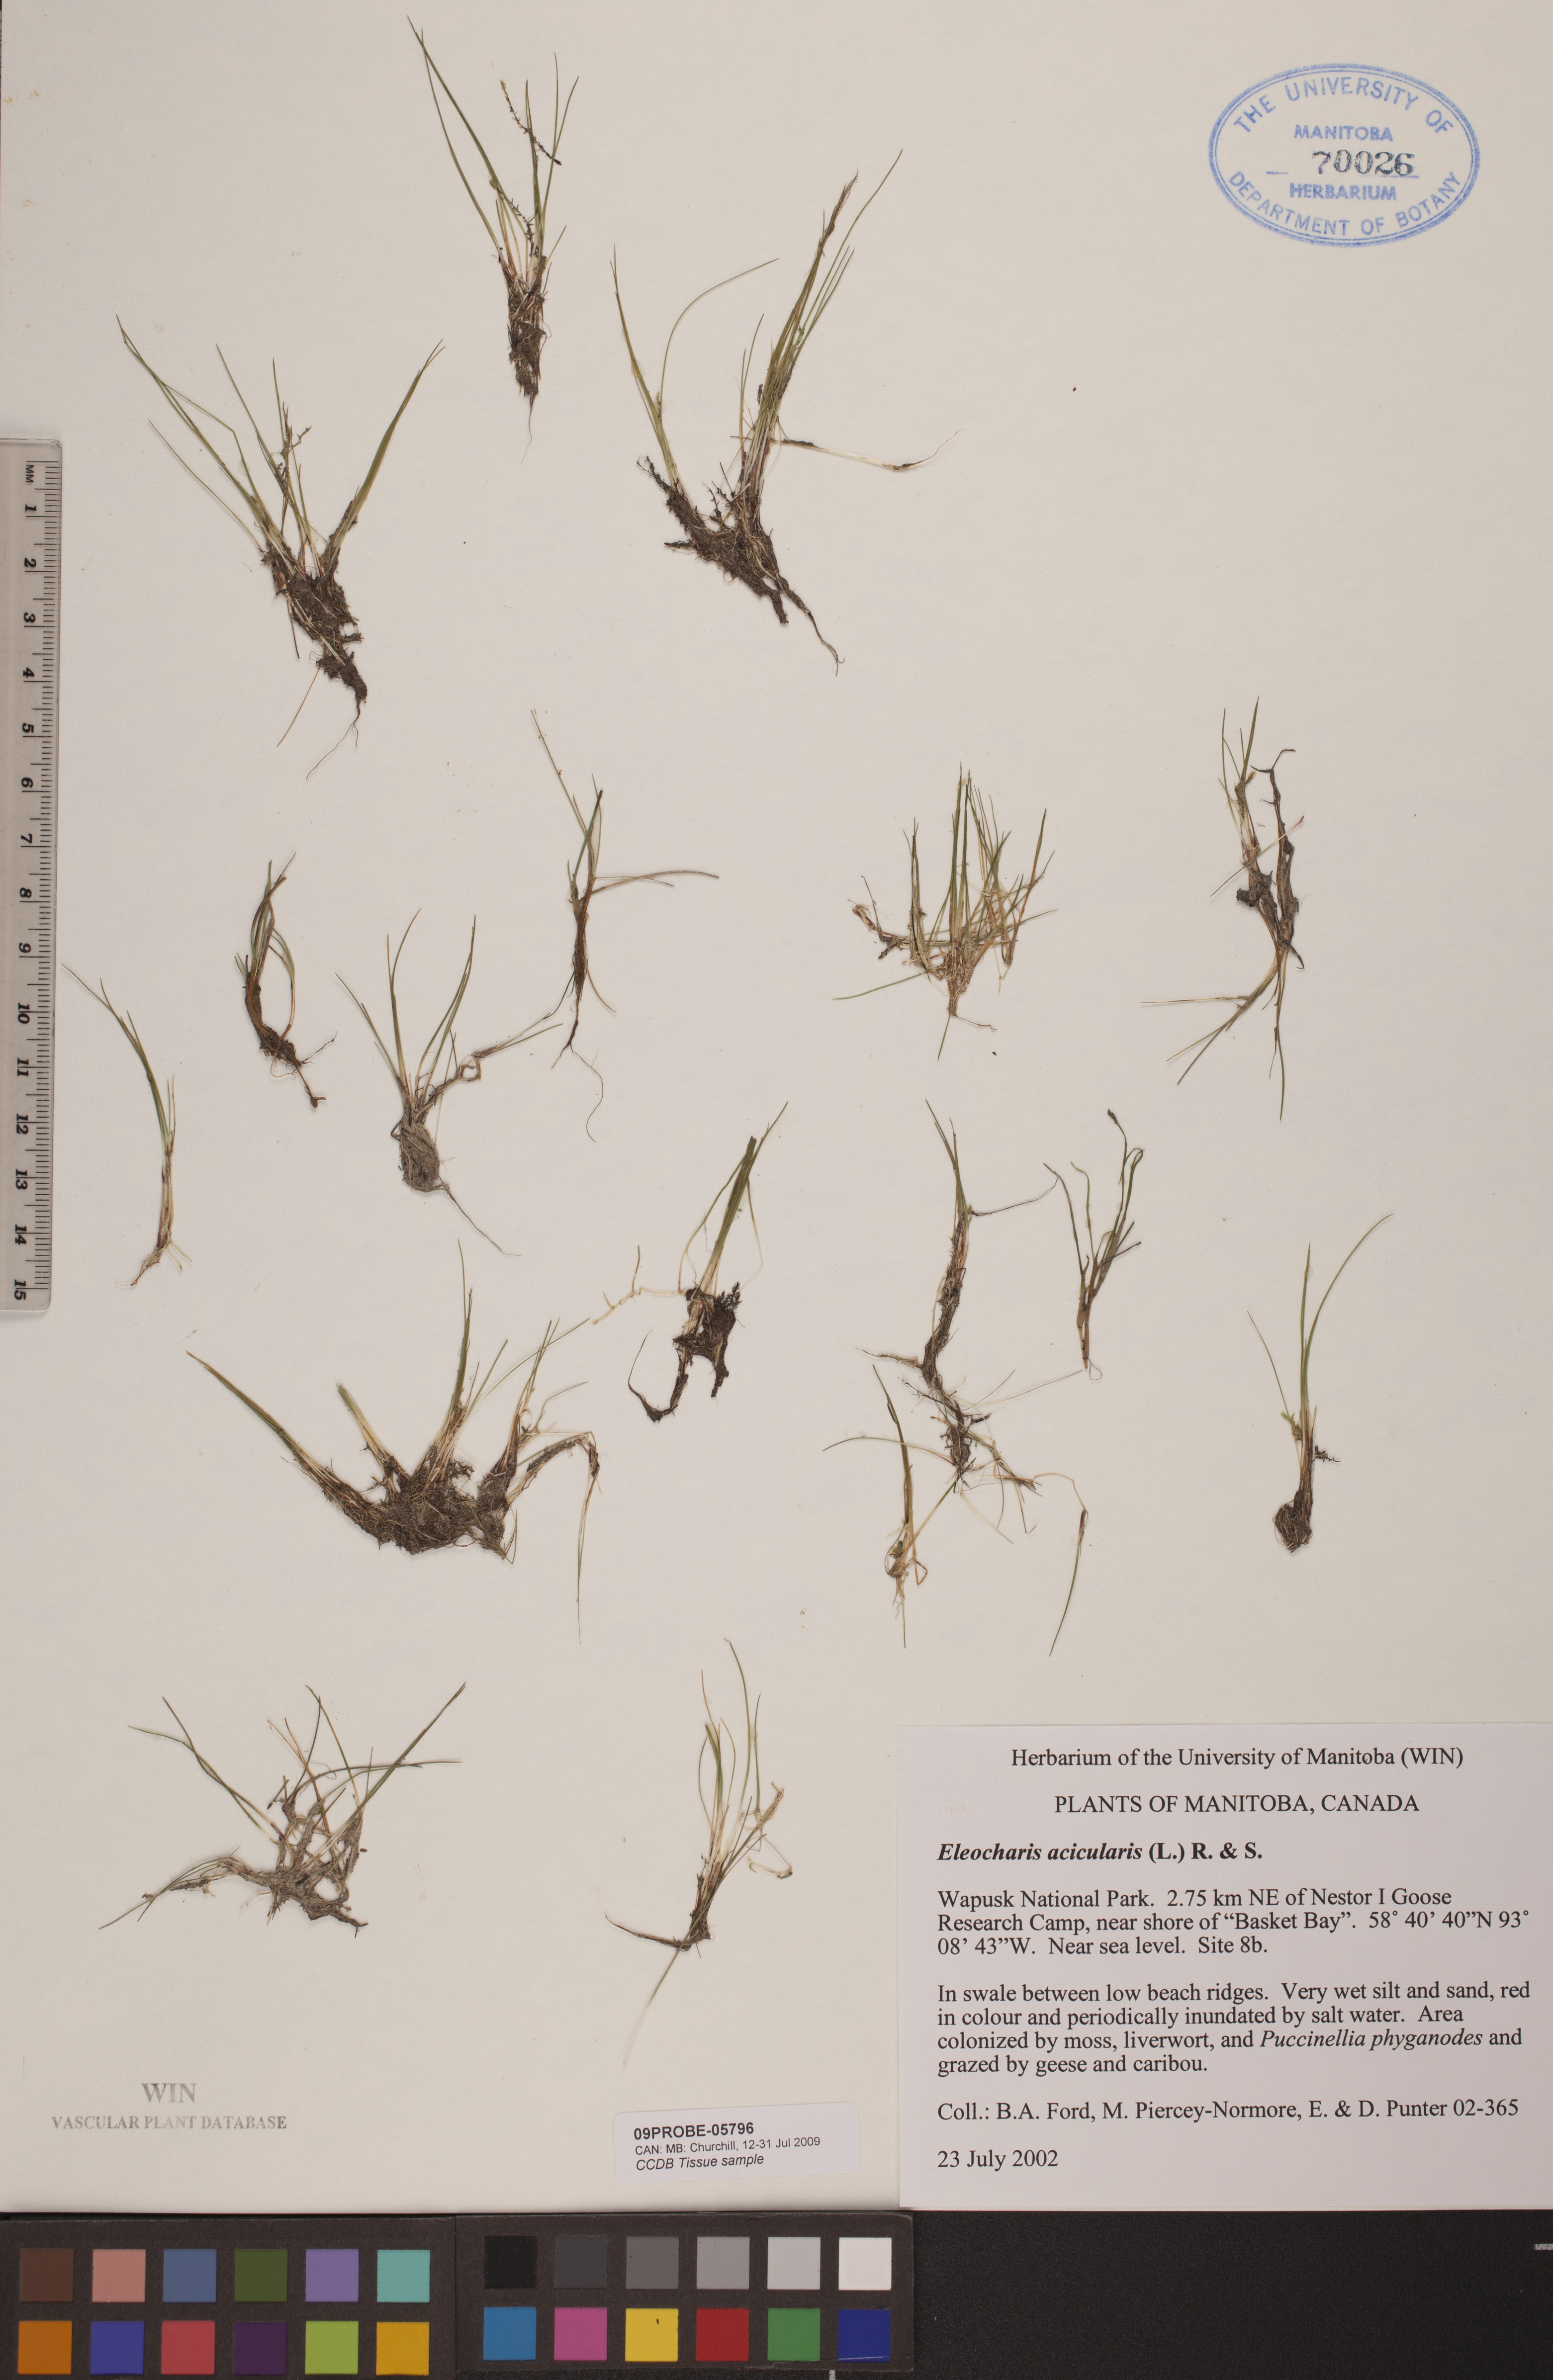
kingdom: Plantae
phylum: Tracheophyta
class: Liliopsida
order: Poales
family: Cyperaceae
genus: Eleocharis
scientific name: Eleocharis acicularis
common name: Needle spike-rush
